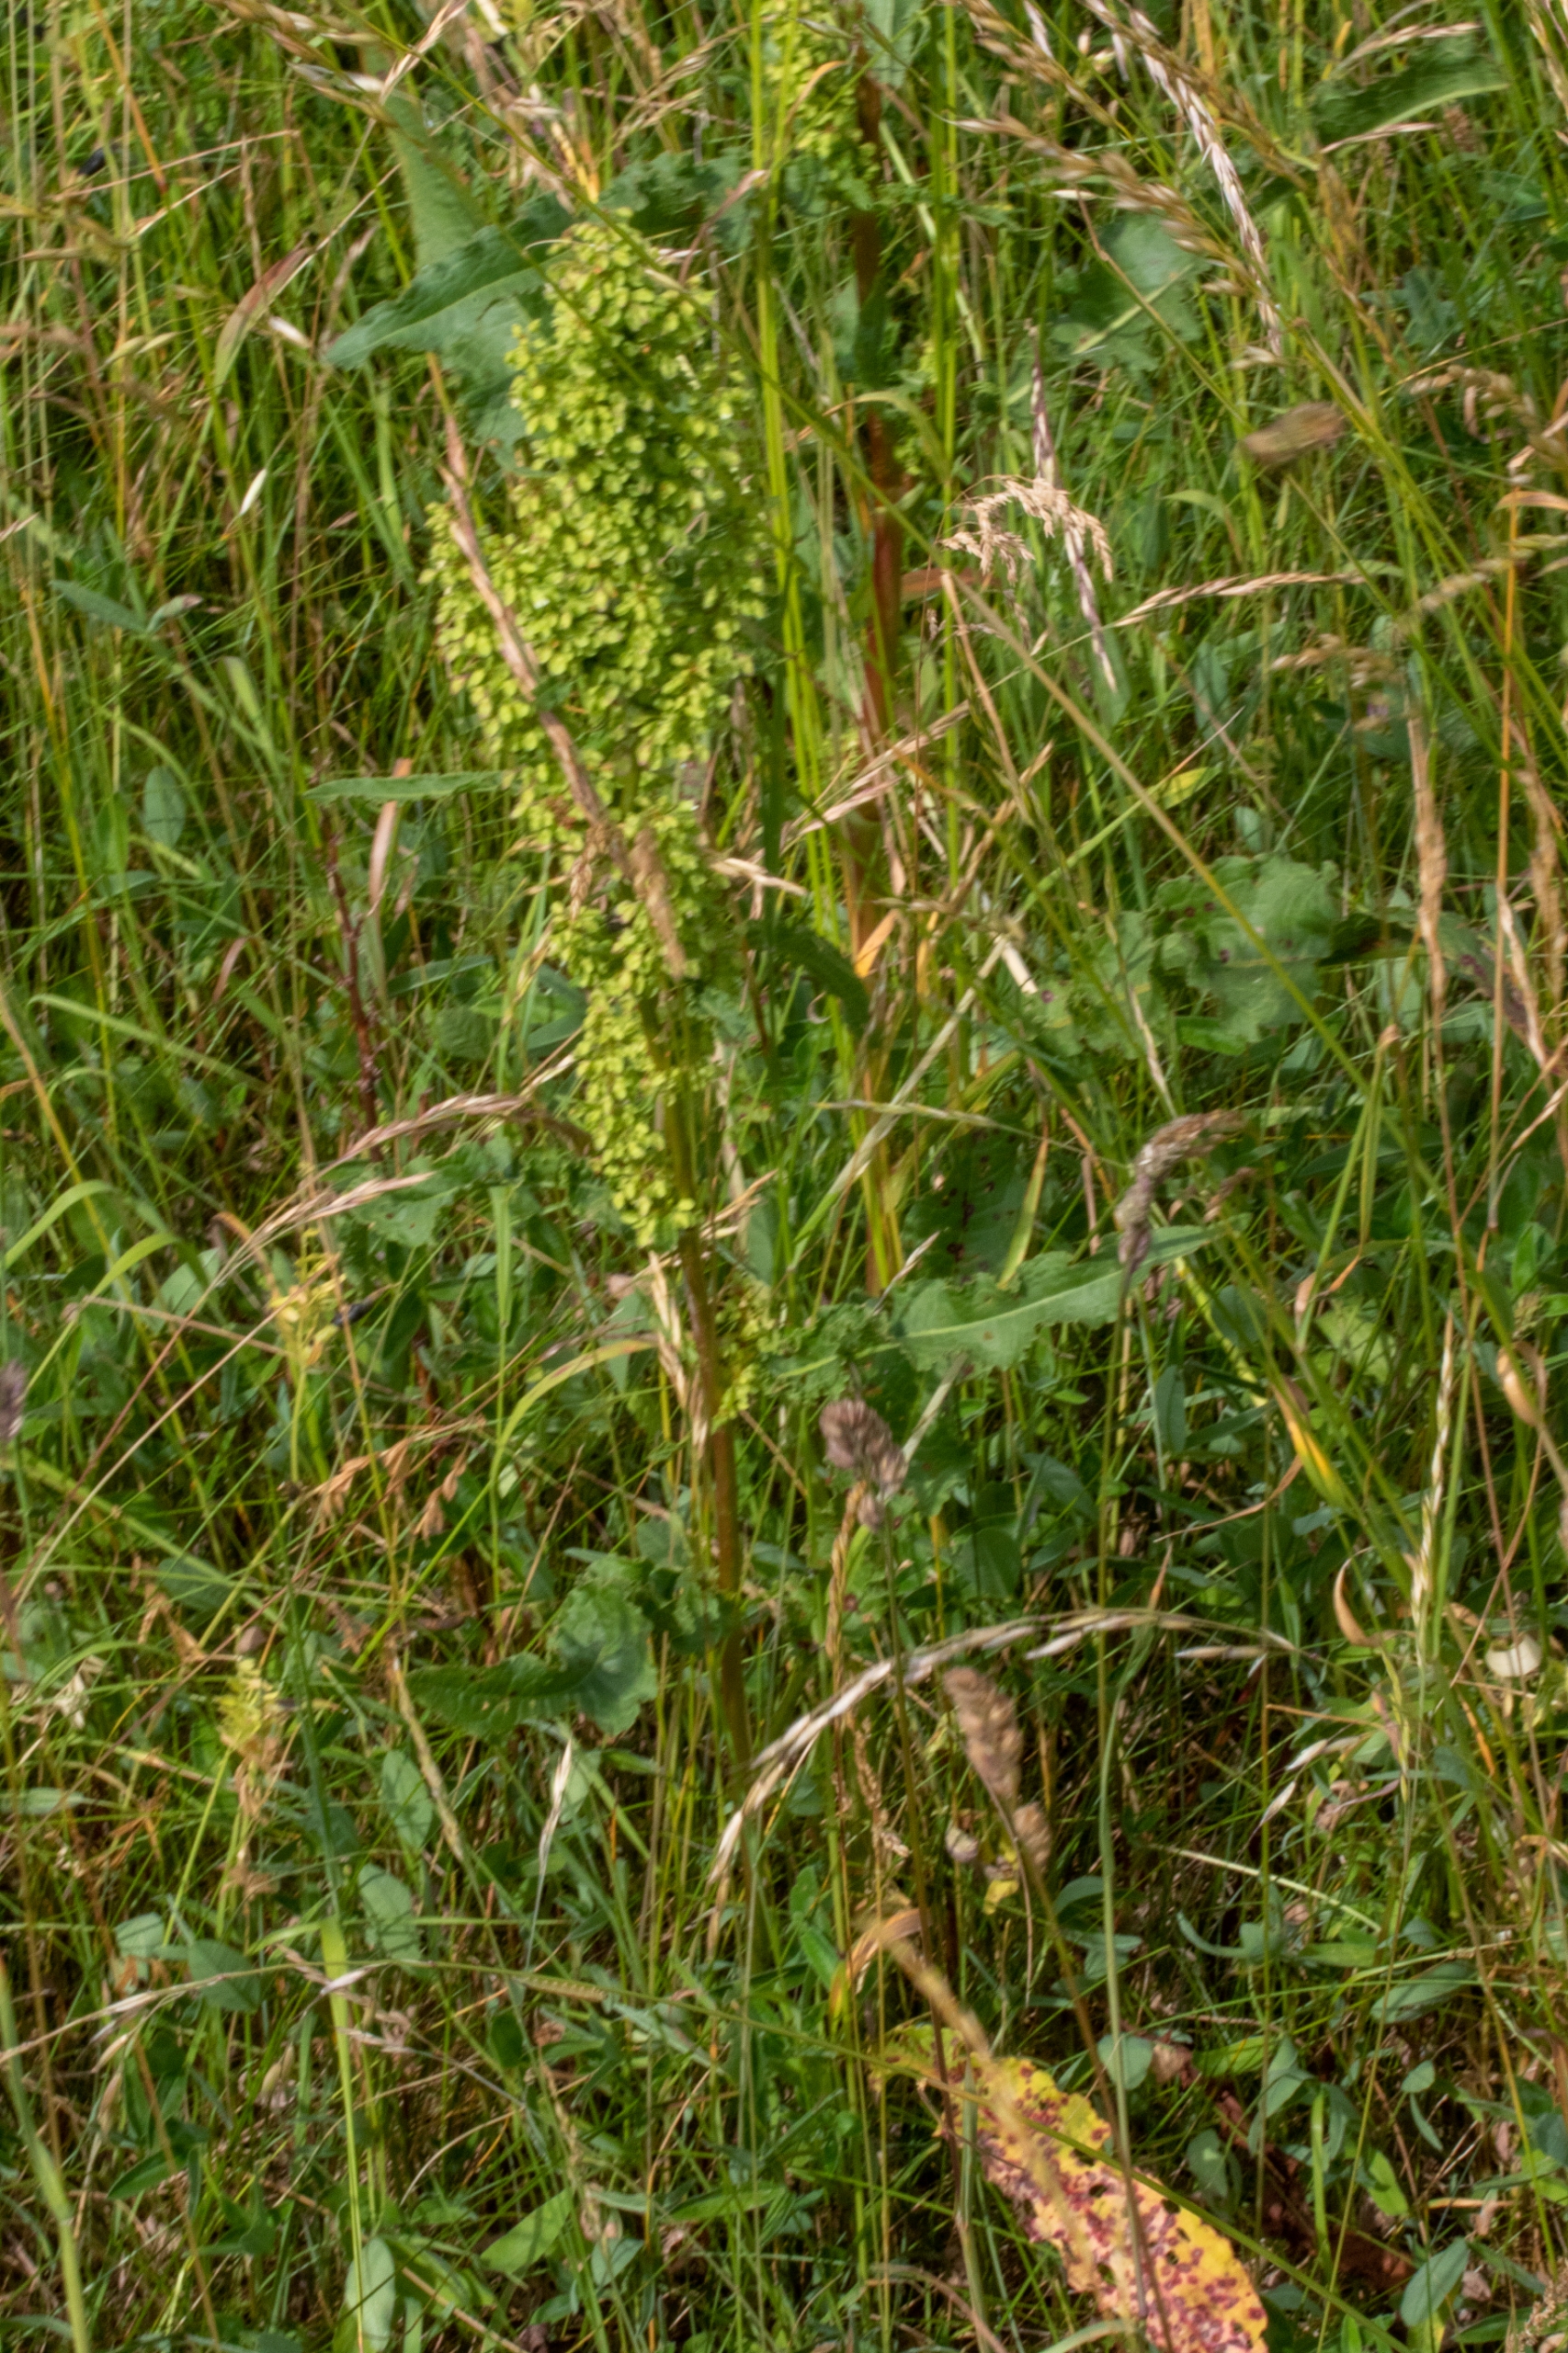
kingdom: Plantae
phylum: Tracheophyta
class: Magnoliopsida
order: Caryophyllales
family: Polygonaceae
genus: Rumex
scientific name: Rumex crispus
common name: Kruset skræppe
